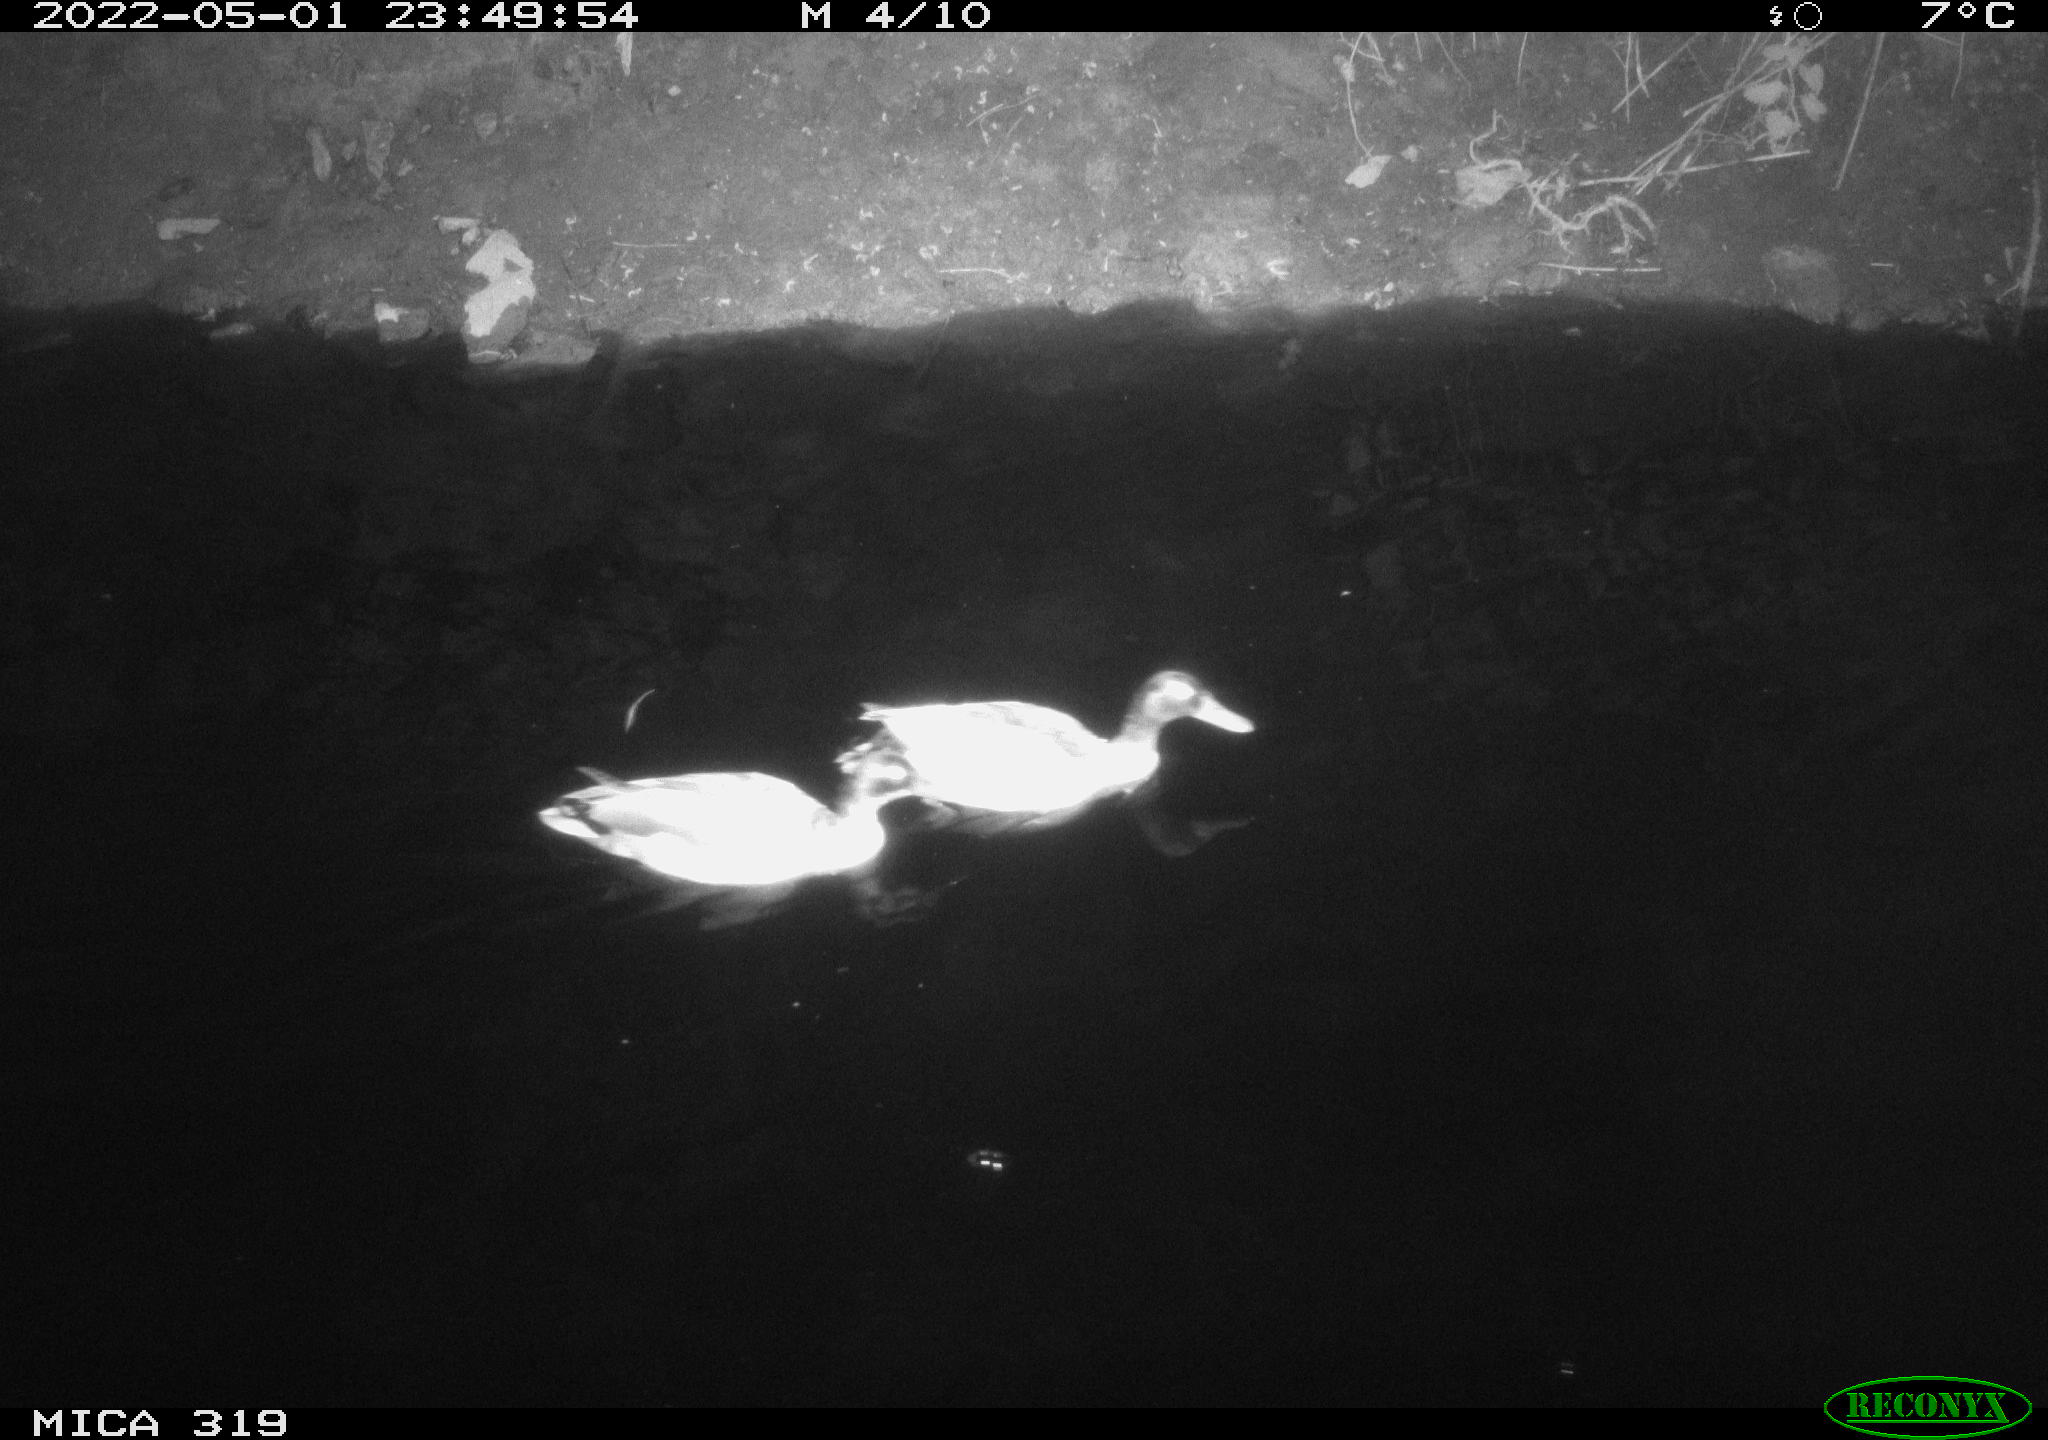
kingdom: Animalia
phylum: Chordata
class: Aves
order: Anseriformes
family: Anatidae
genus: Anas
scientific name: Anas platyrhynchos
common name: Mallard
